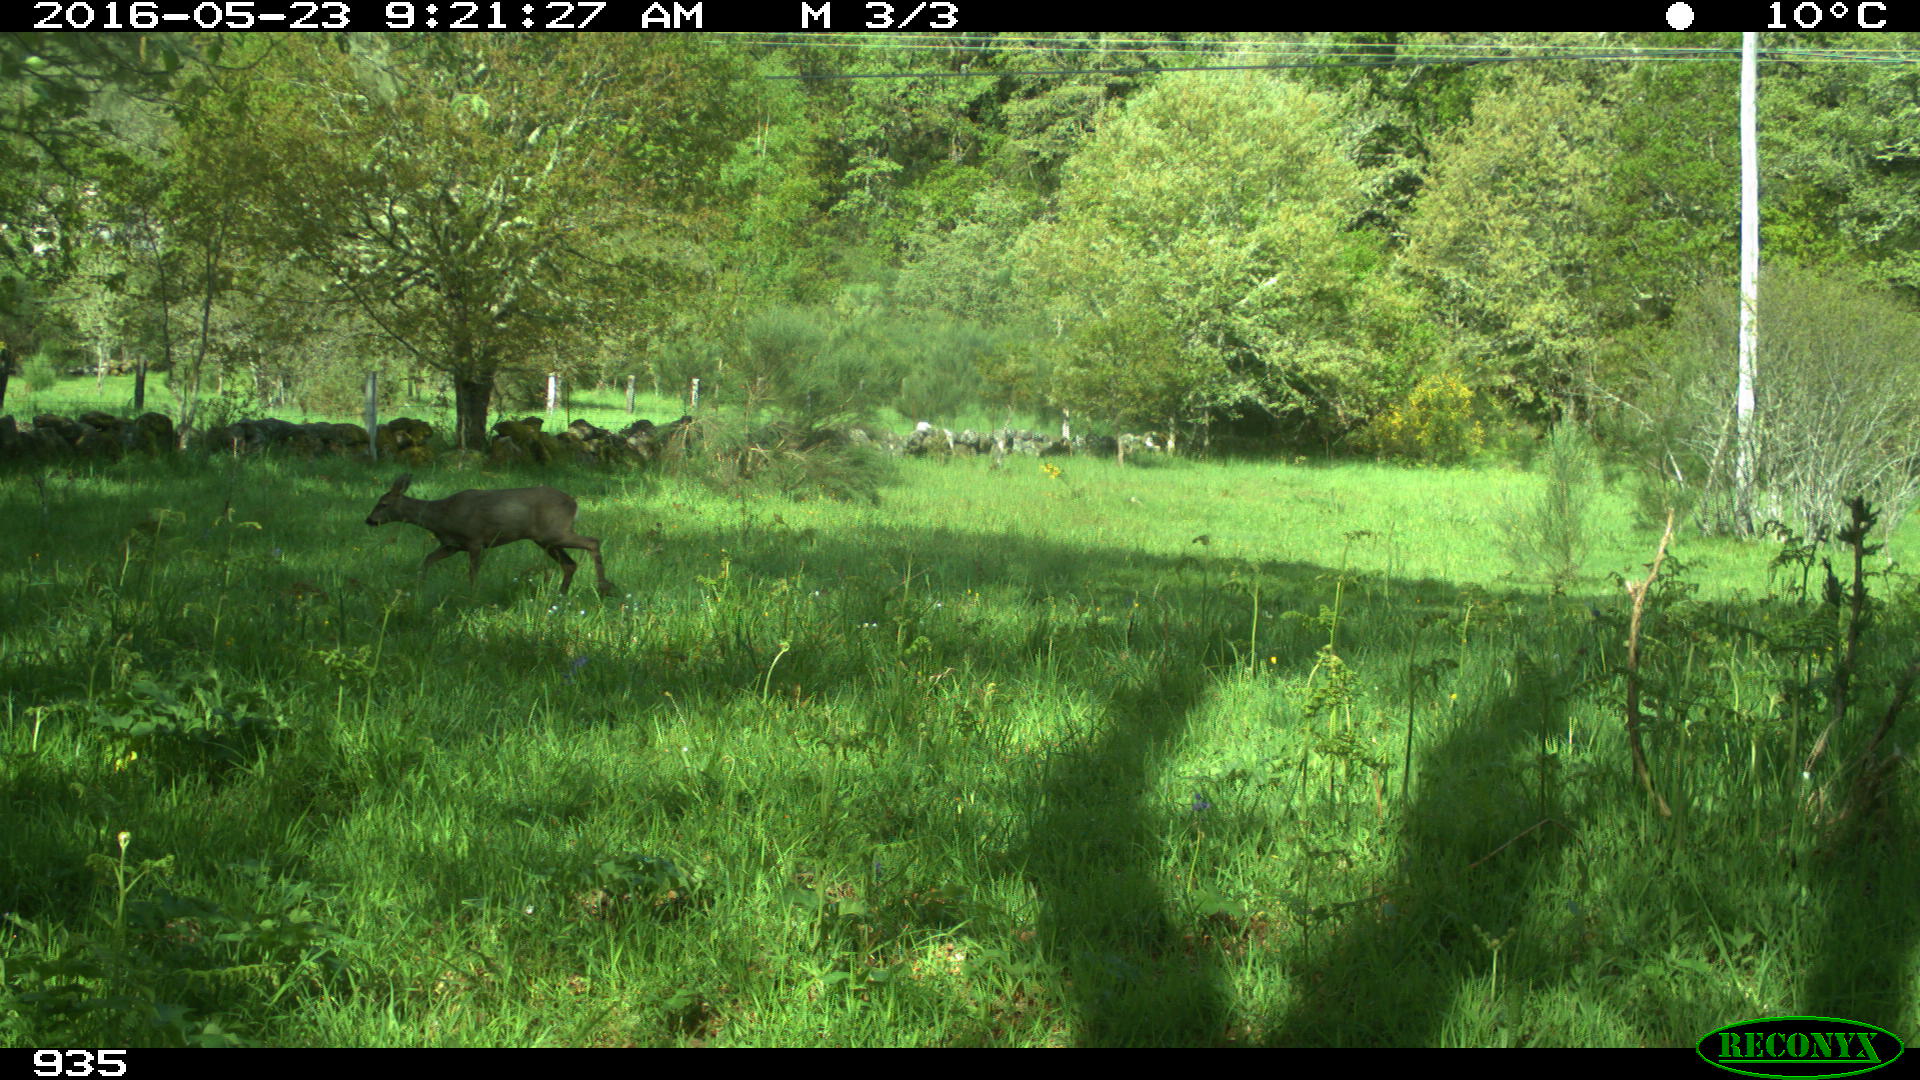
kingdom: Animalia
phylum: Chordata
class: Mammalia
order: Artiodactyla
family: Cervidae
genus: Capreolus
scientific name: Capreolus capreolus
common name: Western roe deer
